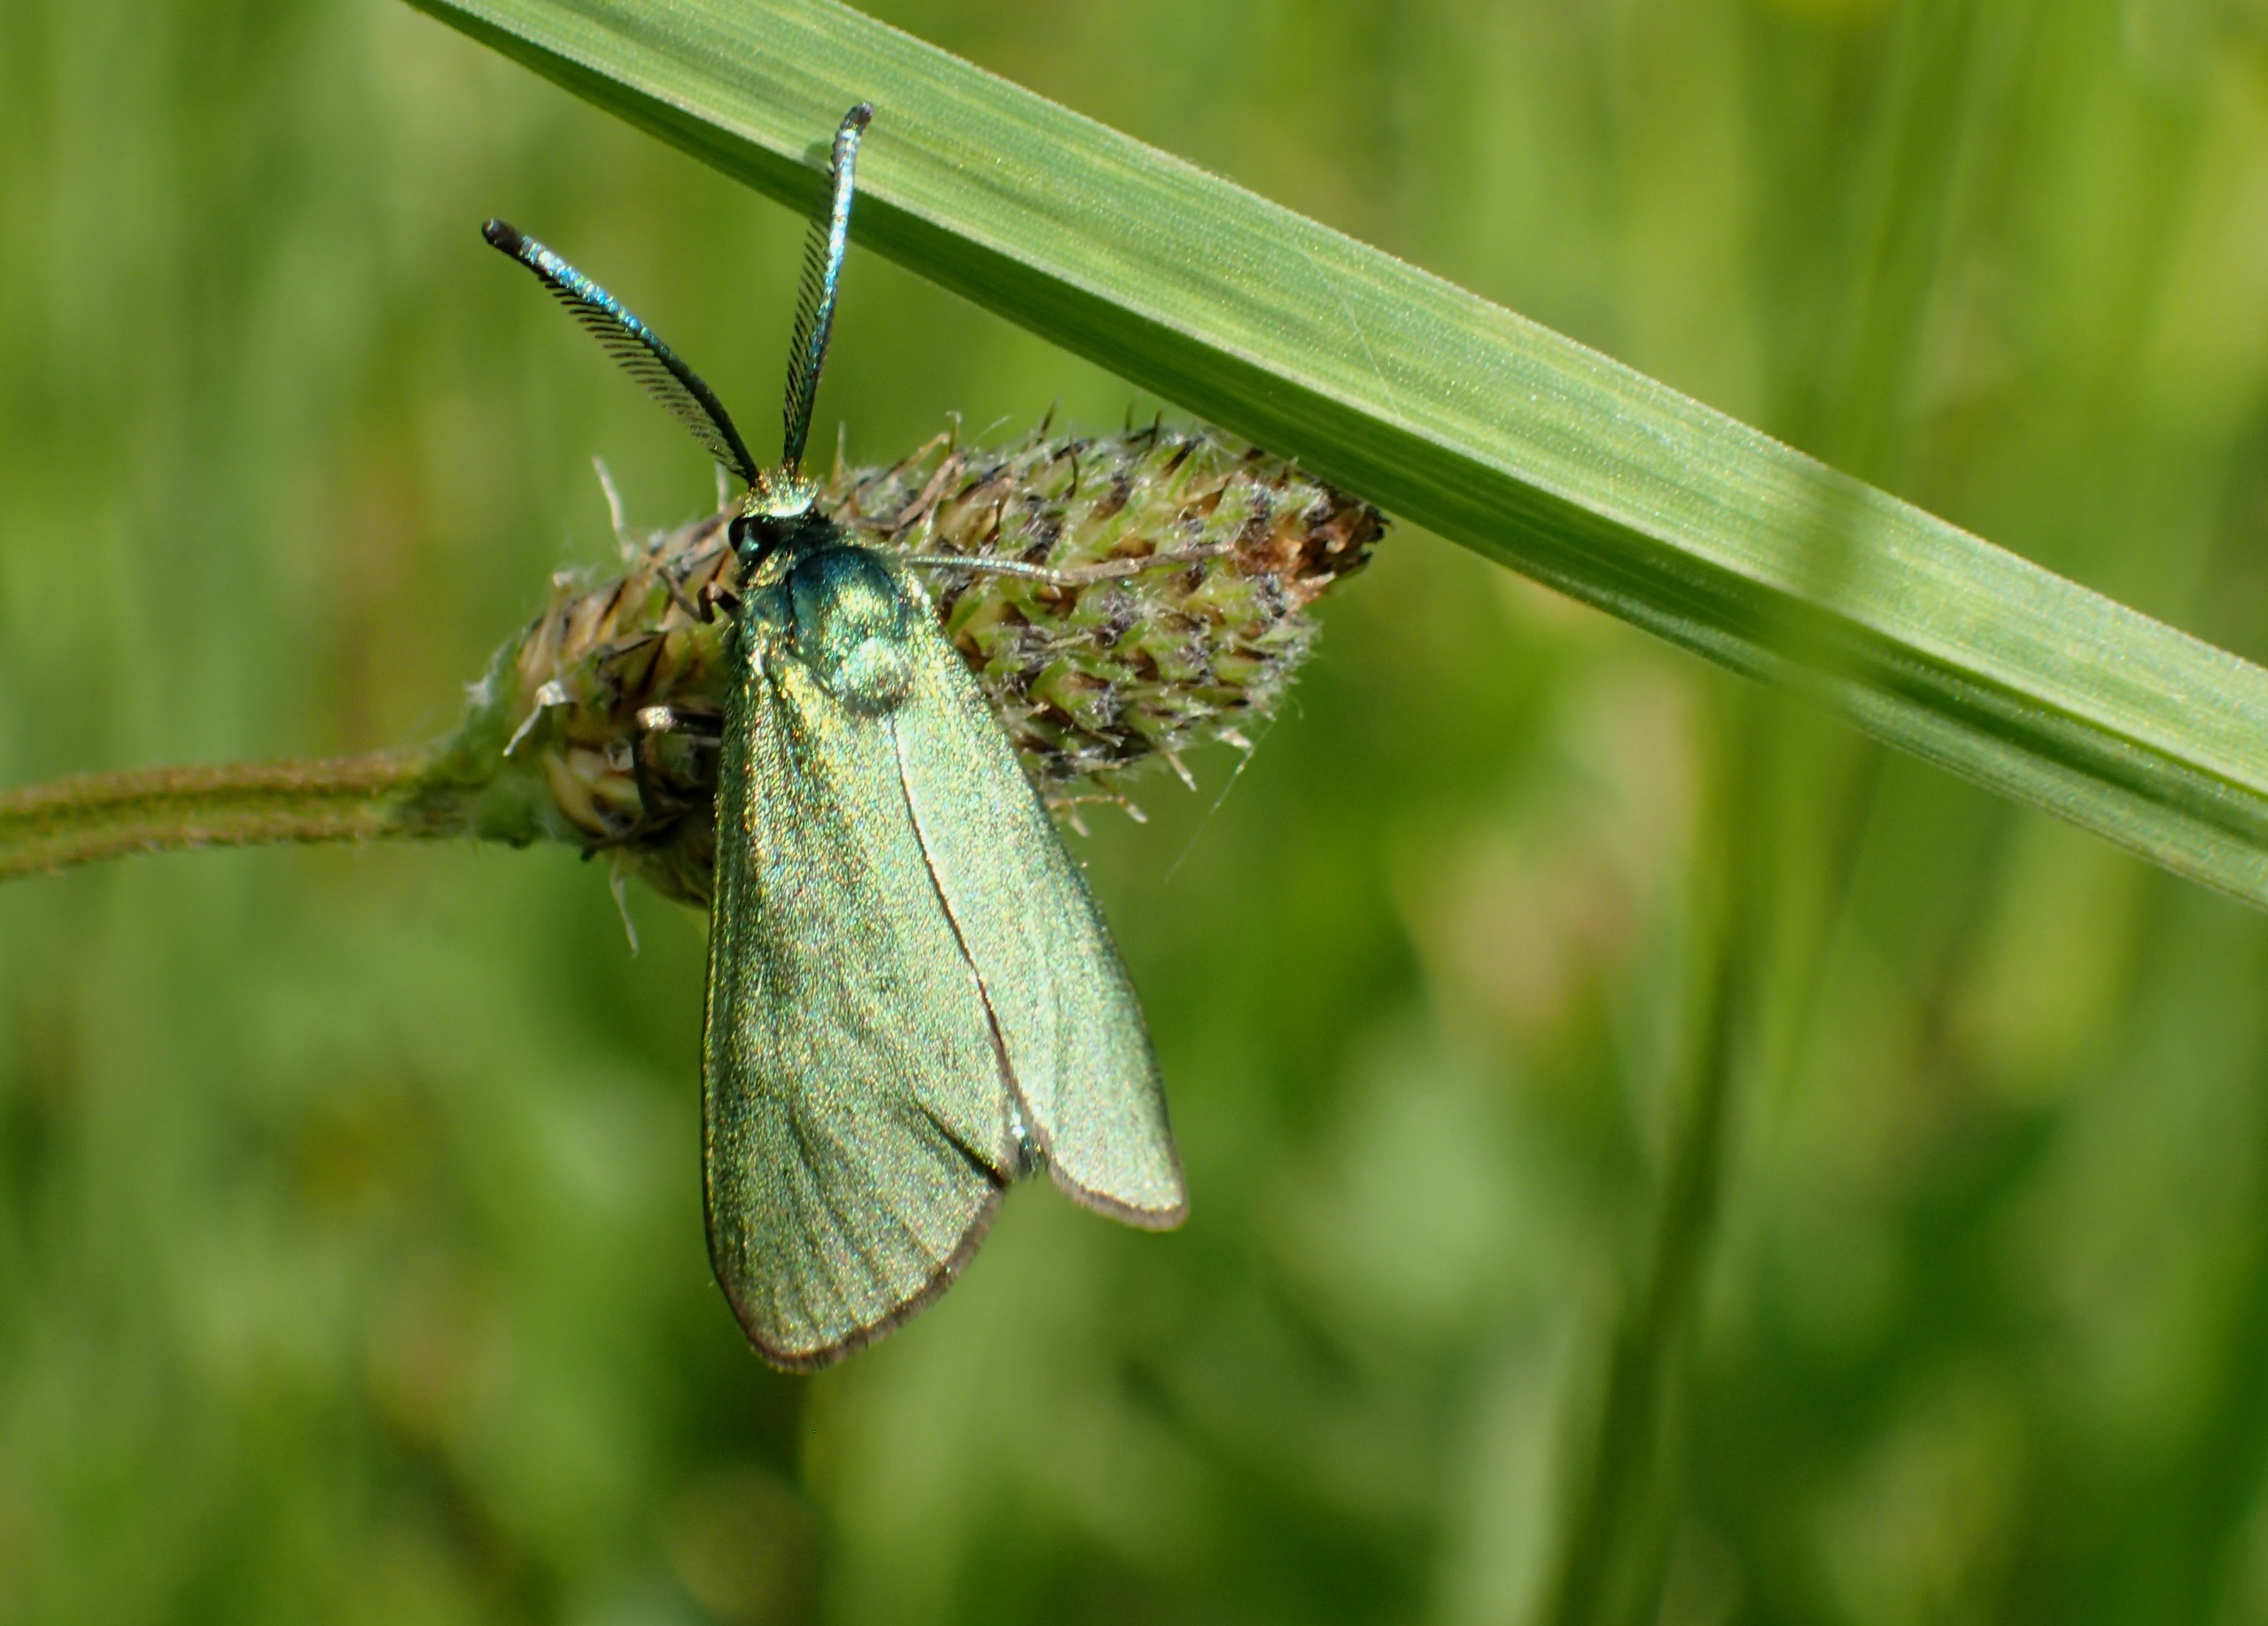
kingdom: Animalia
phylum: Arthropoda
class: Insecta
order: Lepidoptera
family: Zygaenidae
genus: Adscita
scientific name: Adscita statices
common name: Metalvinge
